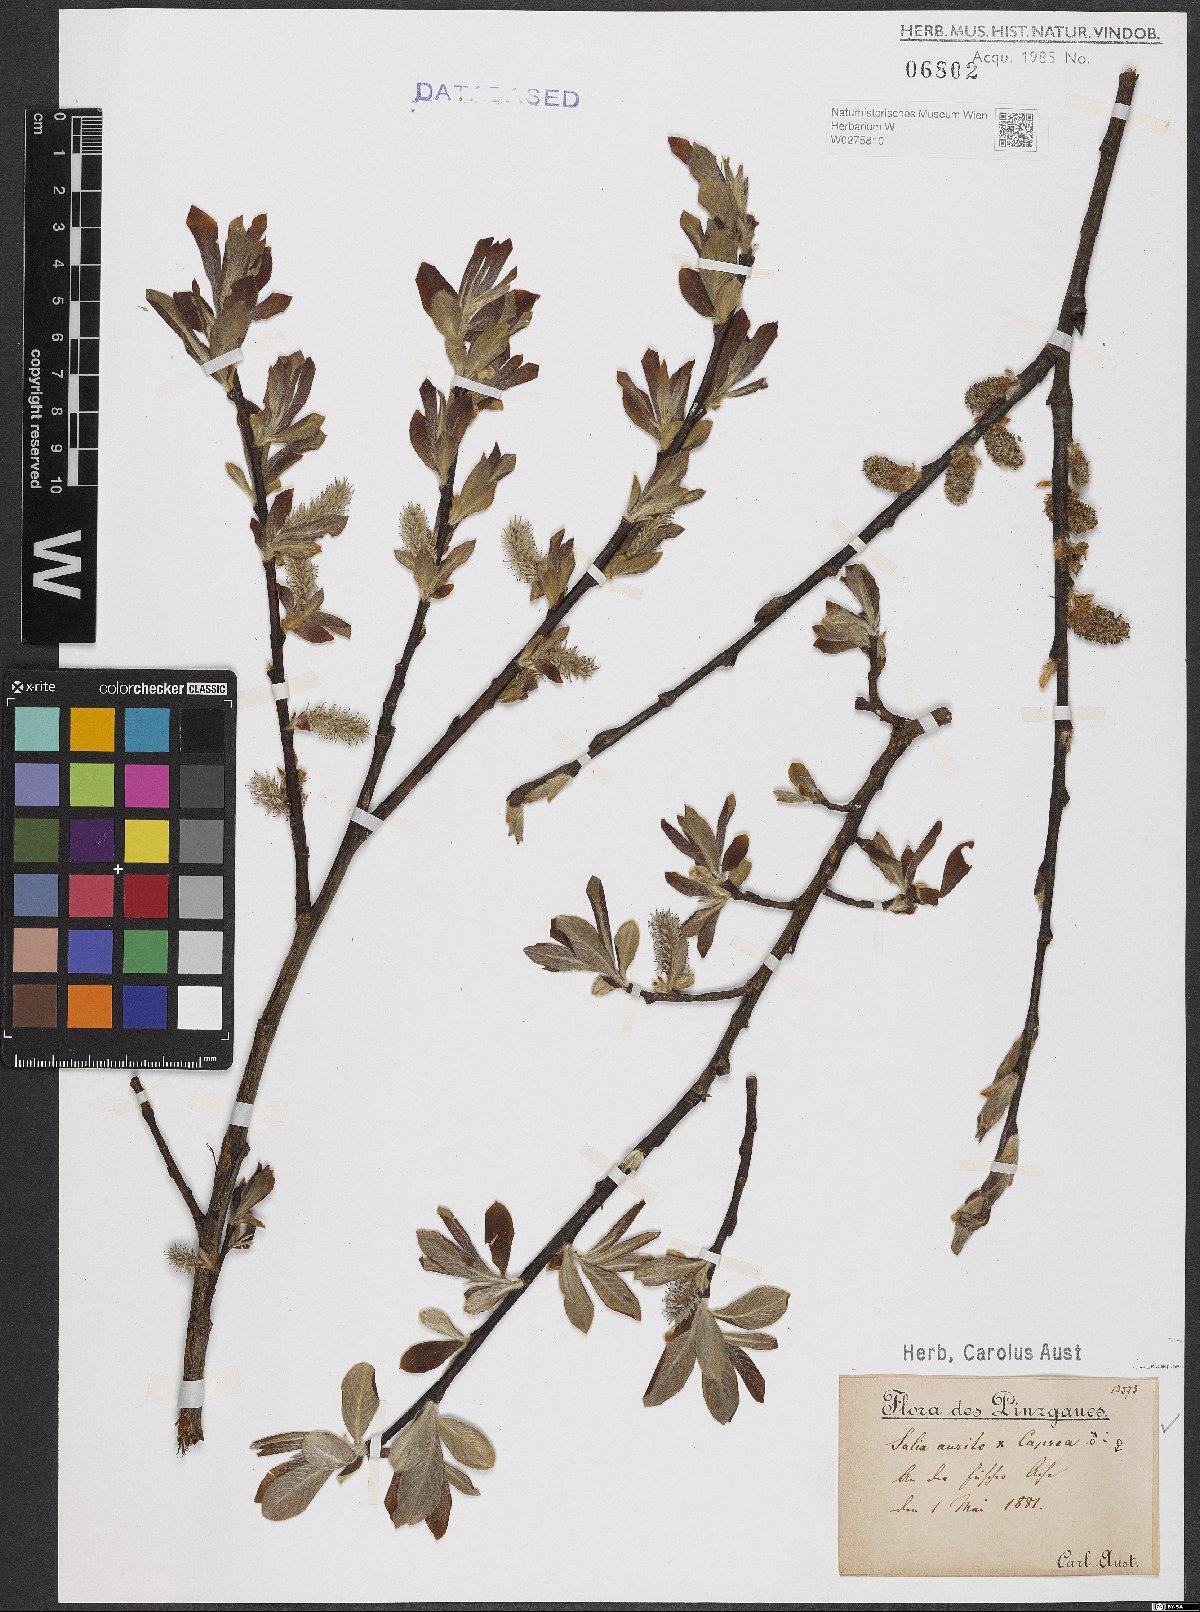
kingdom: Plantae
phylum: Tracheophyta
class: Magnoliopsida
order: Malpighiales
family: Salicaceae
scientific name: Salicaceae
